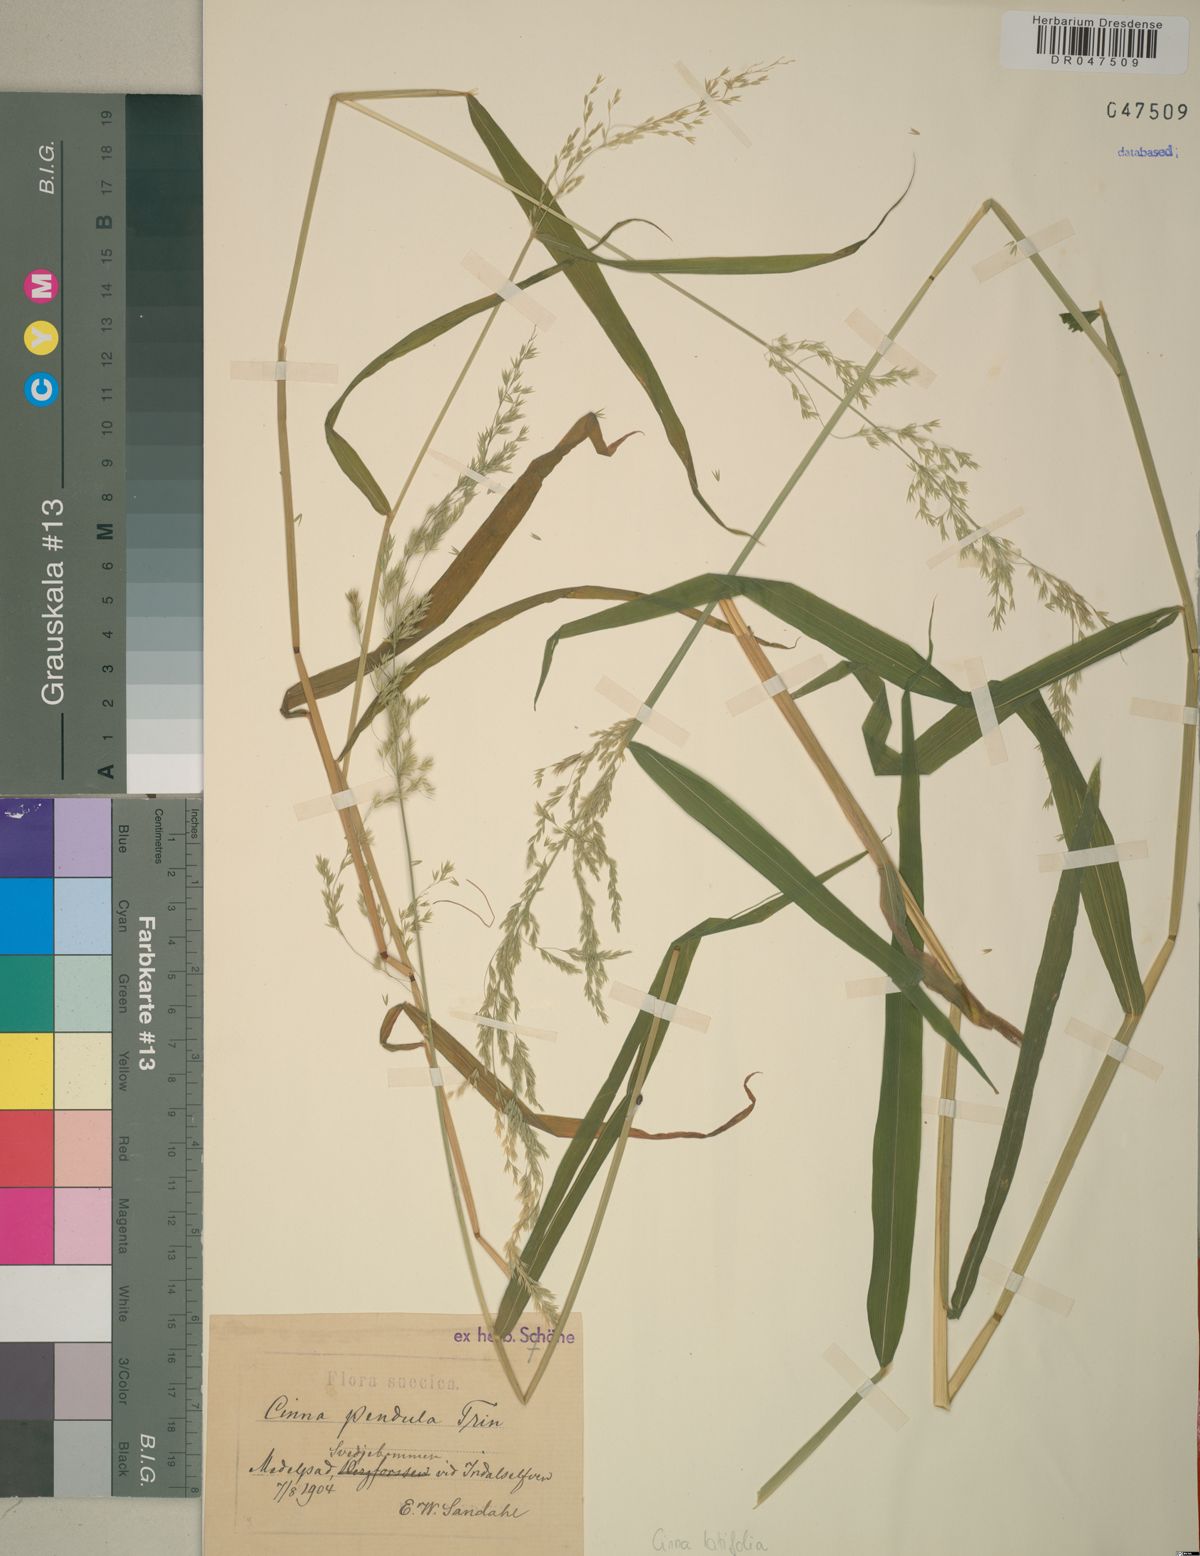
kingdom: Plantae
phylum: Tracheophyta
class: Liliopsida
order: Poales
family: Poaceae
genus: Cinna
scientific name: Cinna latifolia
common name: Drooping woodreed
